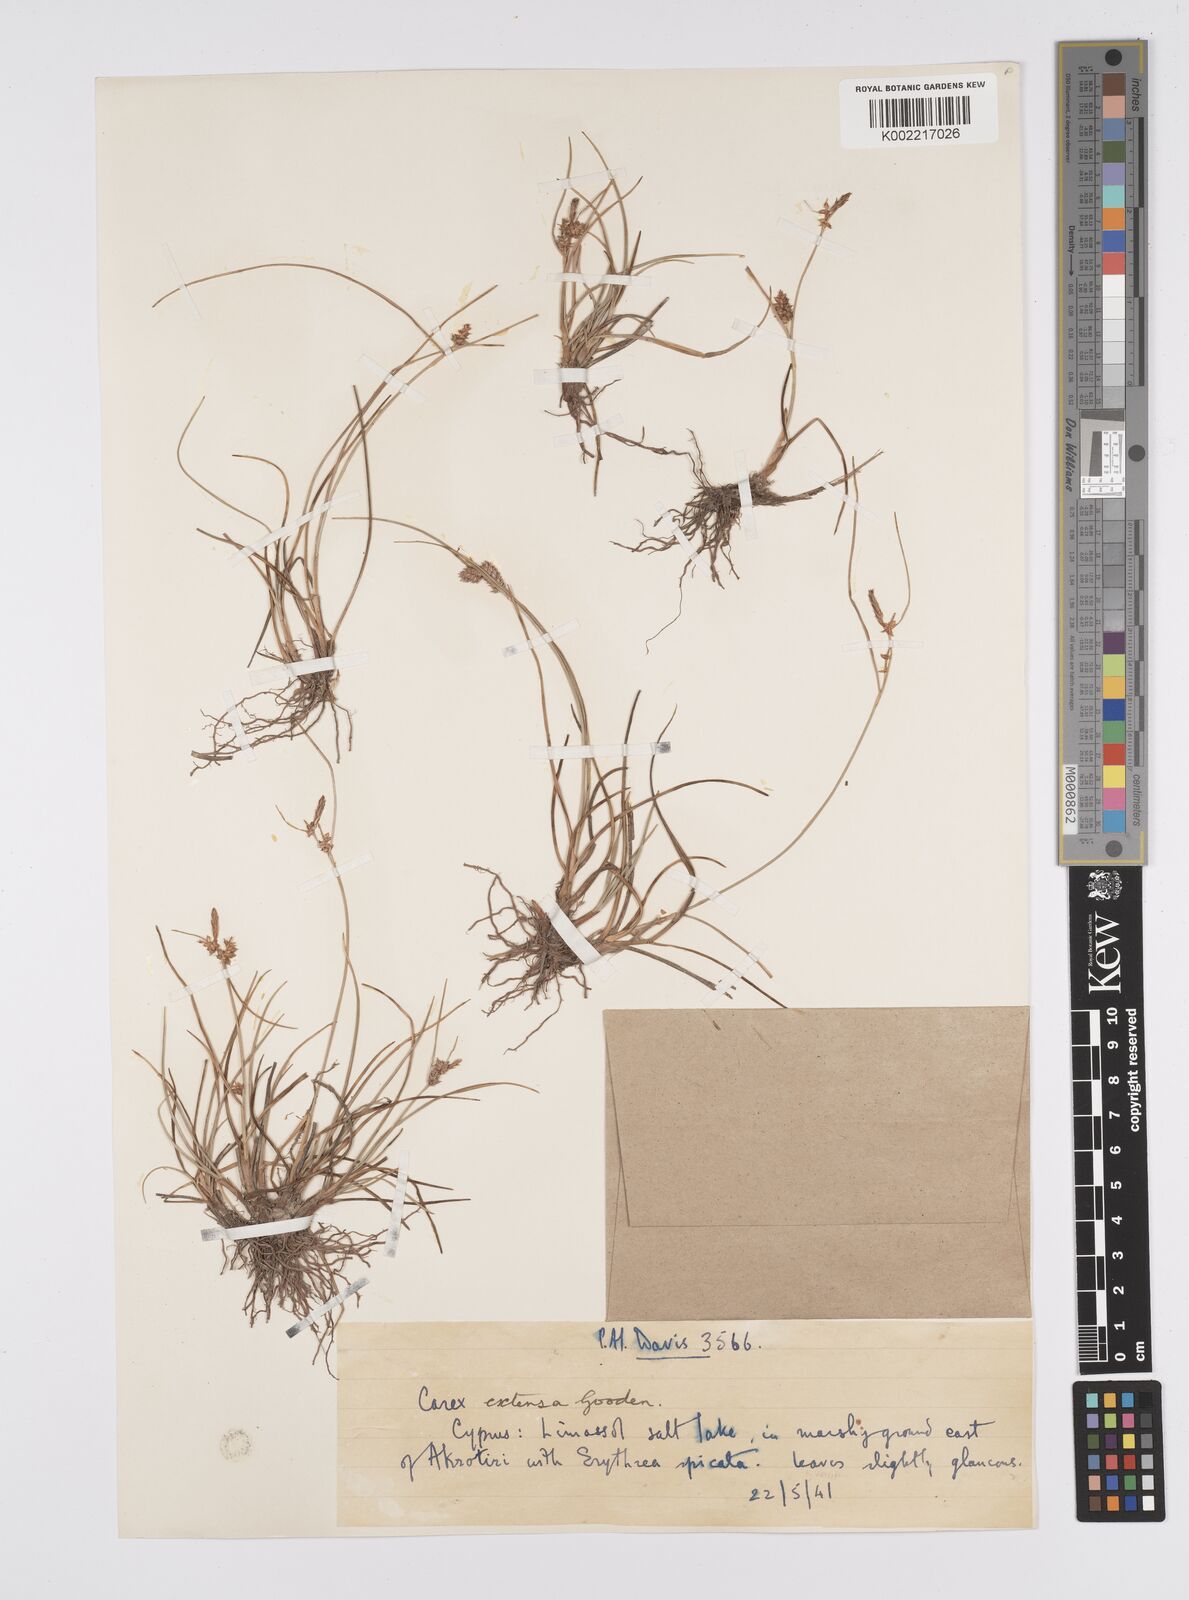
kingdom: Plantae
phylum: Tracheophyta
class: Liliopsida
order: Poales
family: Cyperaceae
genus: Carex
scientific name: Carex extensa
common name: Long-bracted sedge
